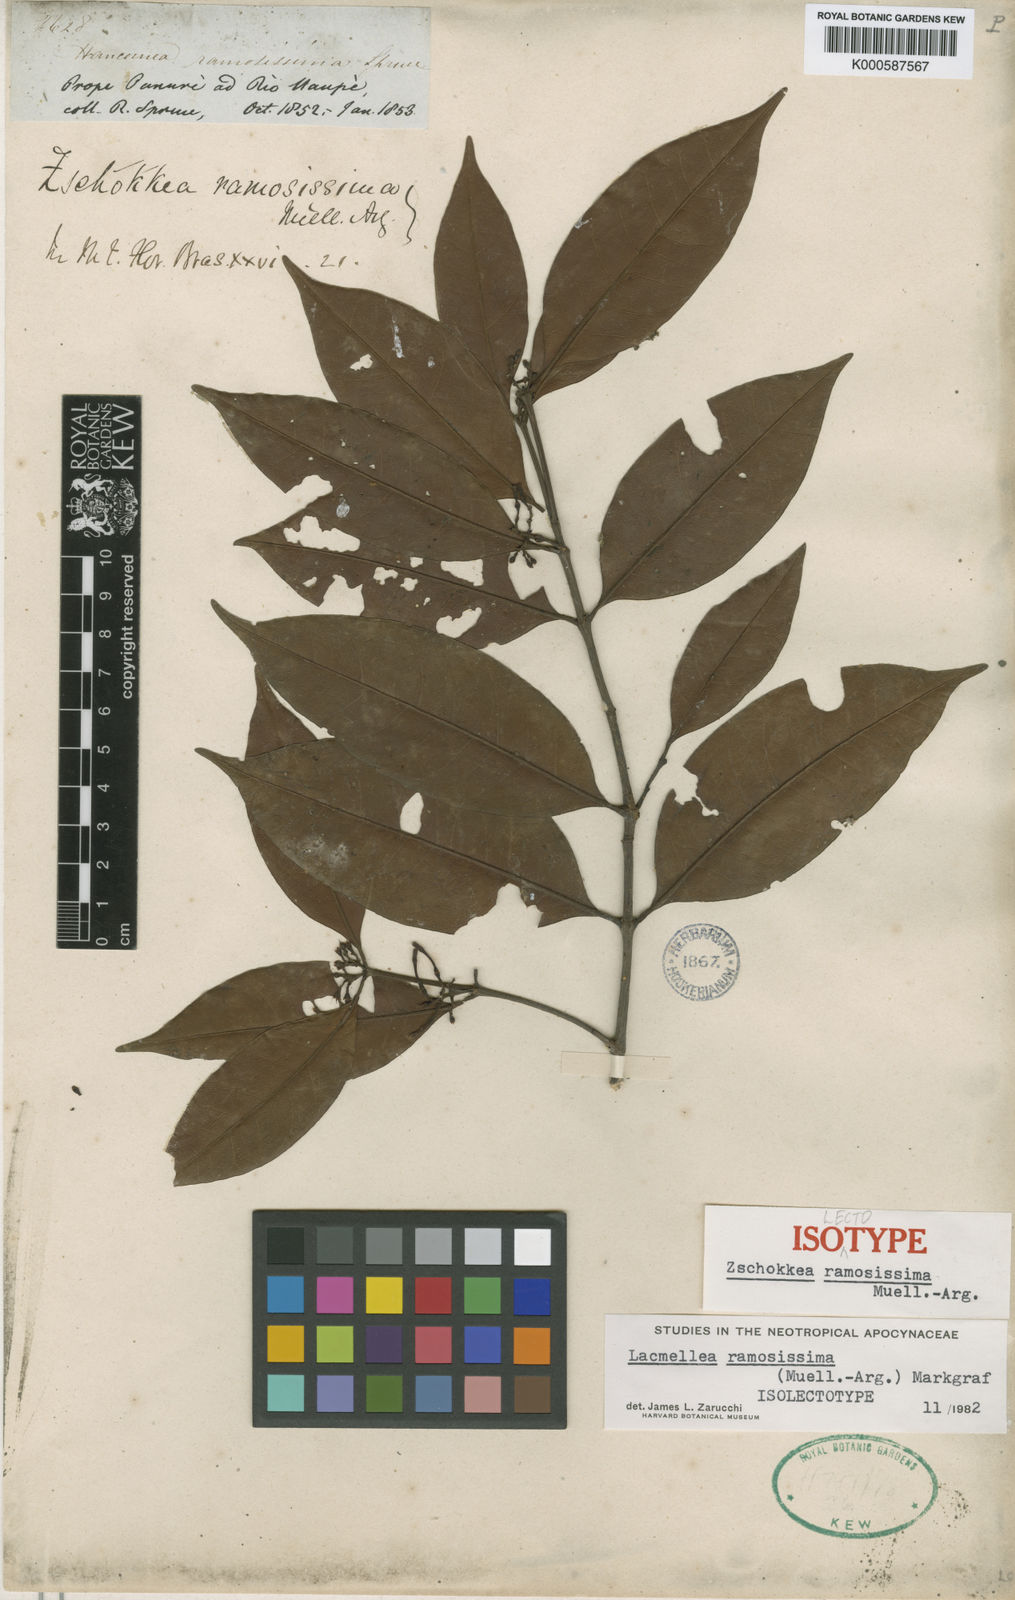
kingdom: Plantae
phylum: Tracheophyta
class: Magnoliopsida
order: Gentianales
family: Apocynaceae
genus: Lacmellea
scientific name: Lacmellea
